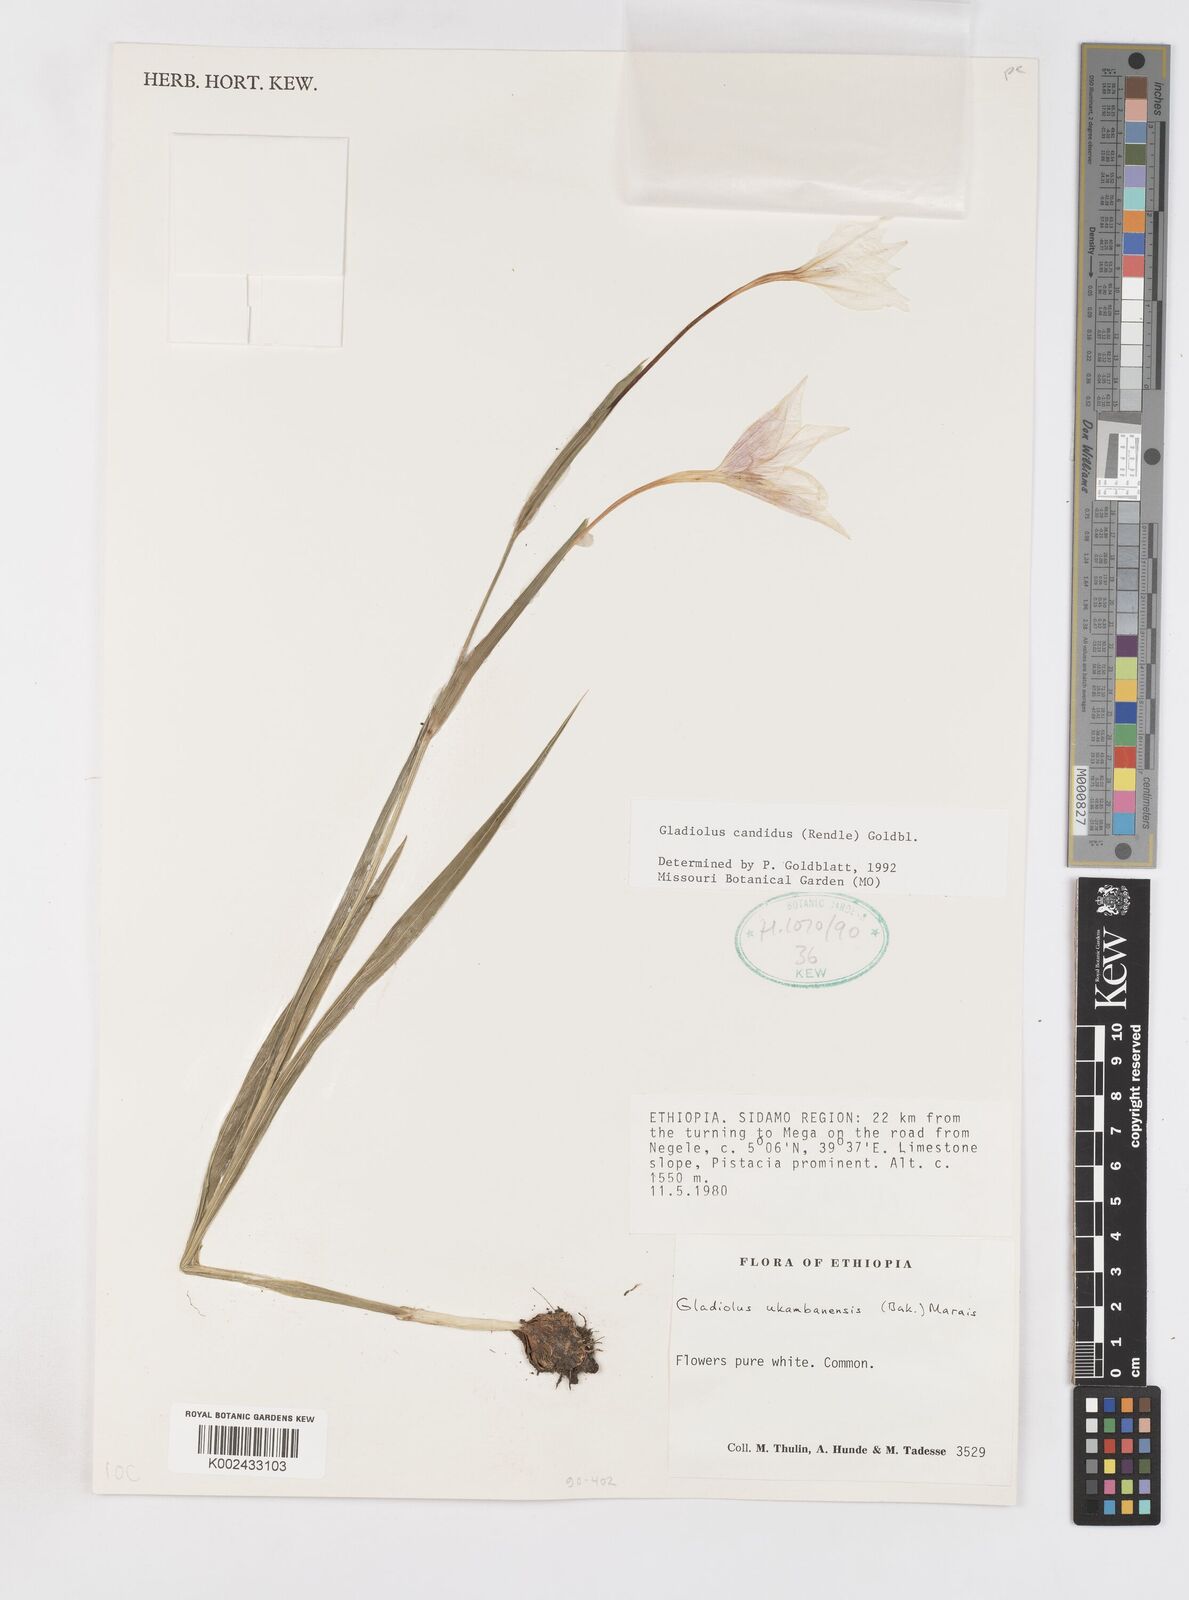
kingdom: Plantae
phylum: Tracheophyta
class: Liliopsida
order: Asparagales
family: Iridaceae
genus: Gladiolus
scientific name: Gladiolus candidus
